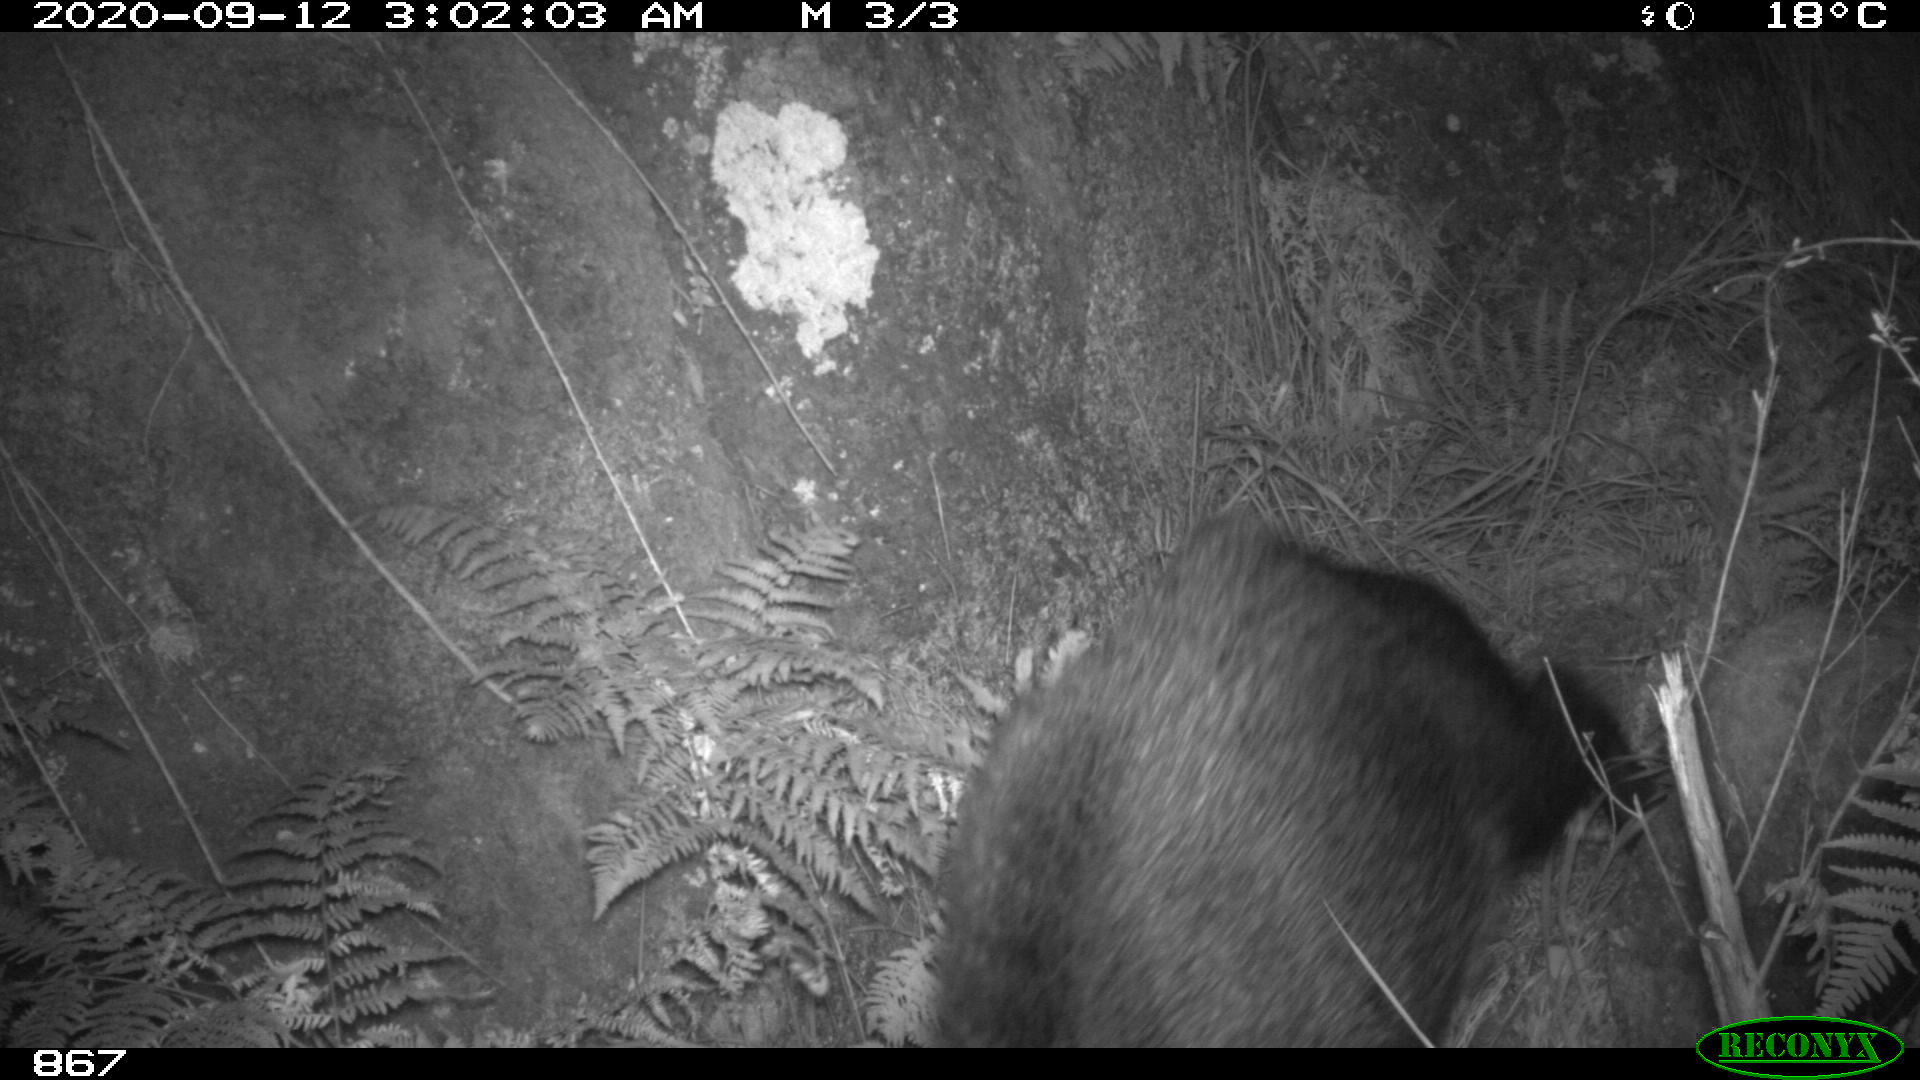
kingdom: Animalia
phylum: Chordata
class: Mammalia
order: Artiodactyla
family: Suidae
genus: Sus
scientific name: Sus scrofa
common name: Wild boar
